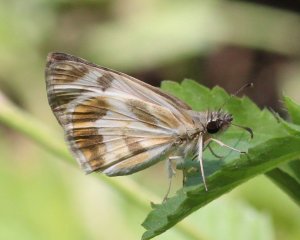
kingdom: Animalia
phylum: Arthropoda
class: Insecta
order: Lepidoptera
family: Hesperiidae
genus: Heliopetes
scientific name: Heliopetes macaira
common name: Turk's-cap White-Skipper
